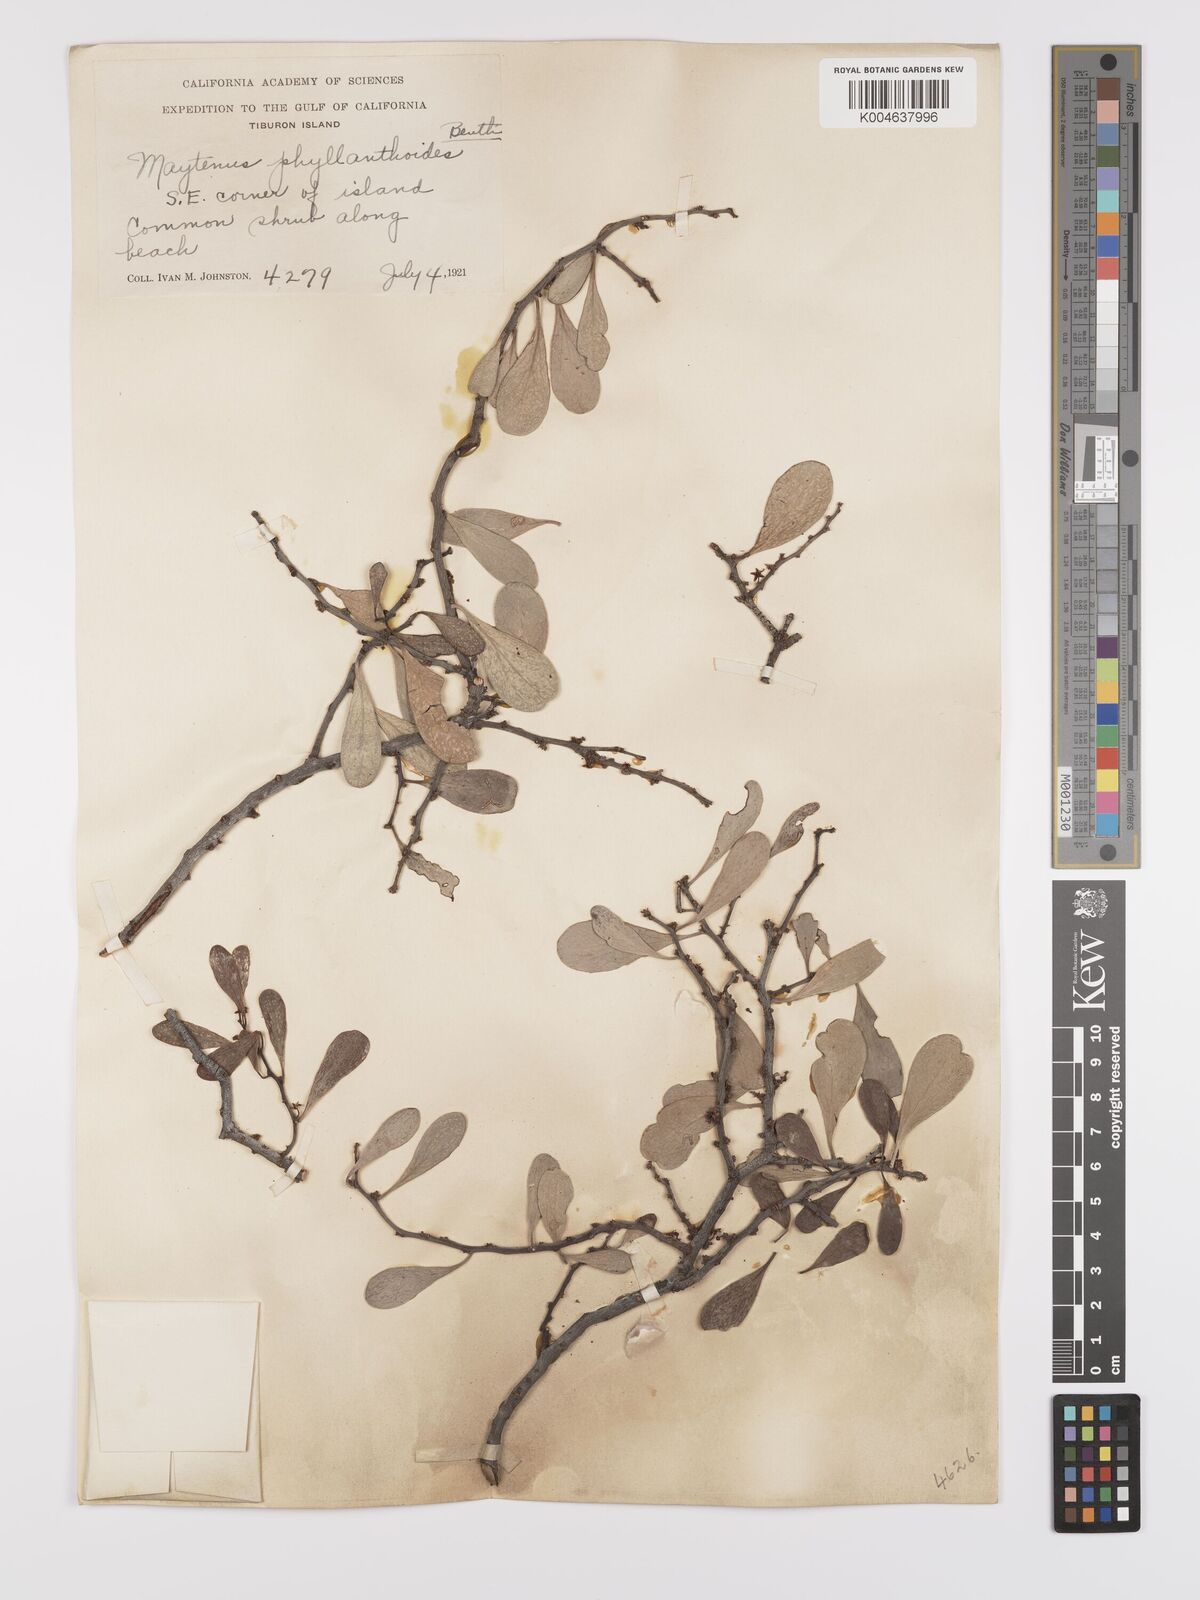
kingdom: Plantae
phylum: Tracheophyta
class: Magnoliopsida
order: Celastrales
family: Celastraceae
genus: Tricerma
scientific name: Tricerma phyllanthoides
